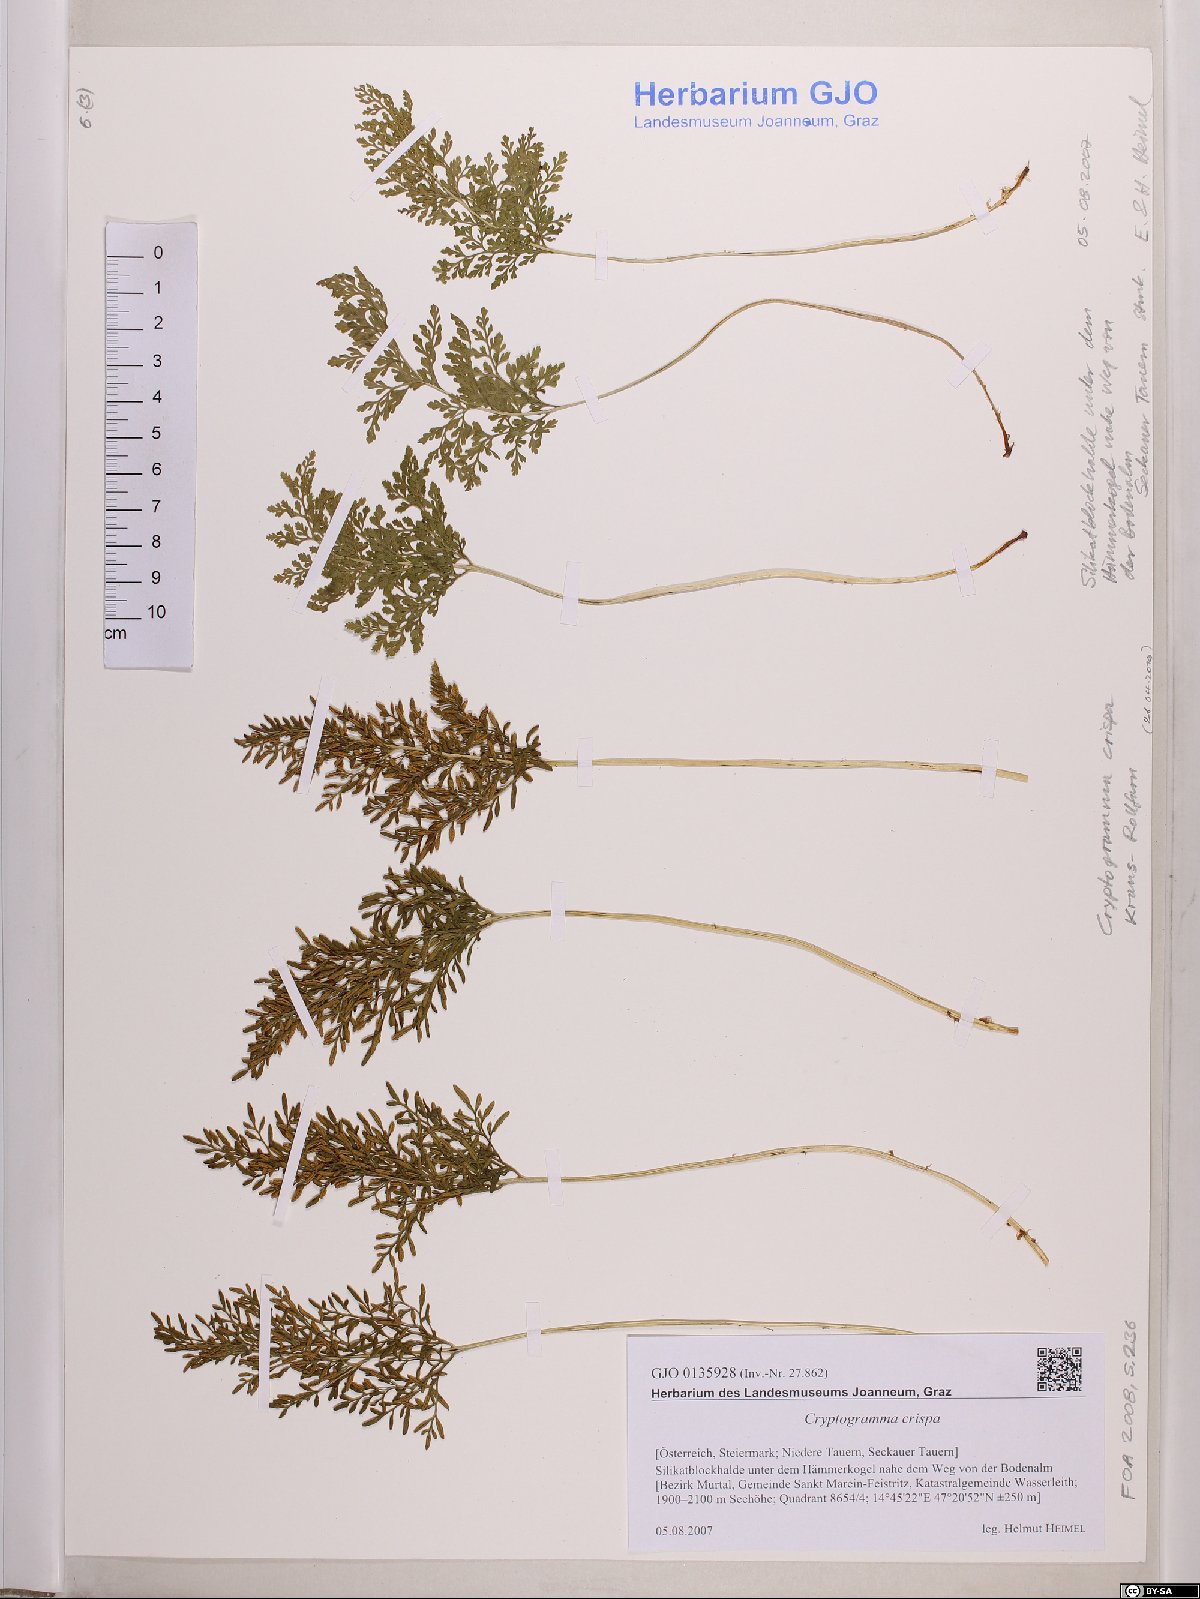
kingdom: Plantae
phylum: Tracheophyta
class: Polypodiopsida
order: Polypodiales
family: Pteridaceae
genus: Cryptogramma
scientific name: Cryptogramma crispa
